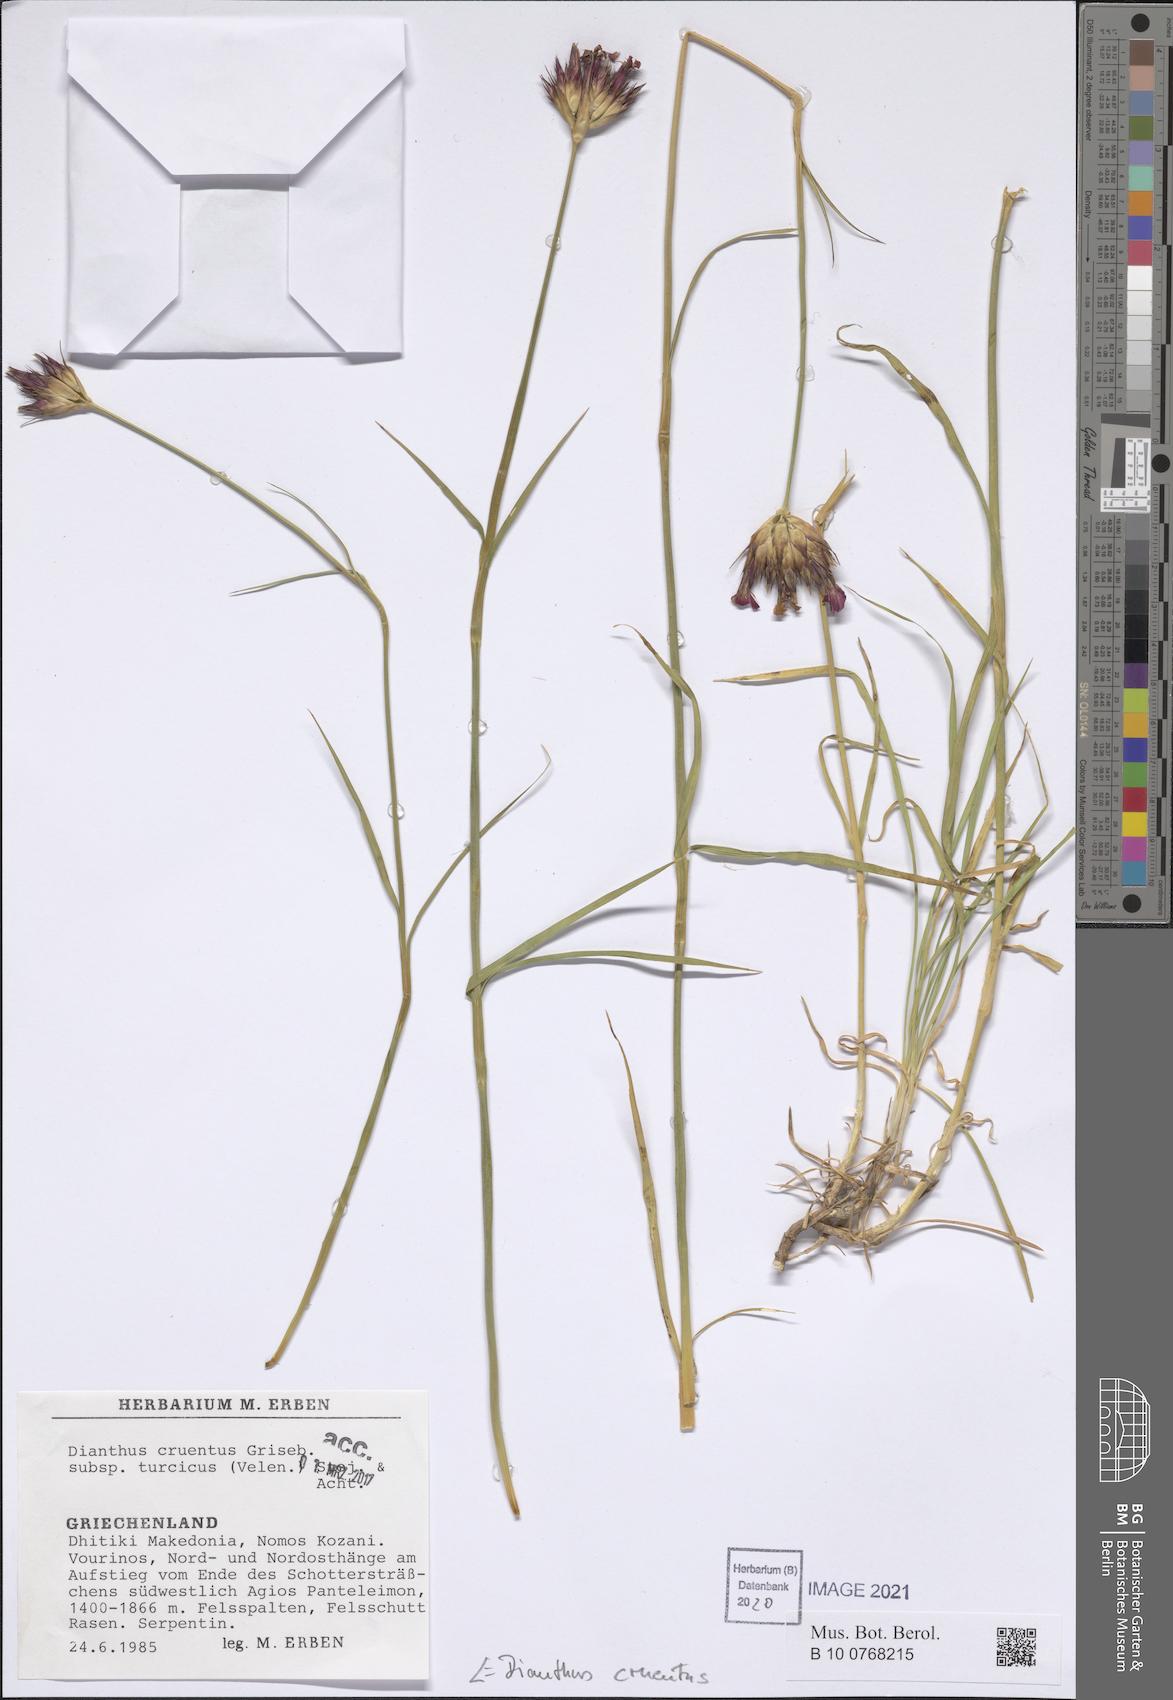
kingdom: Plantae
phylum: Tracheophyta
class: Magnoliopsida
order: Caryophyllales
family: Caryophyllaceae
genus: Dianthus
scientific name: Dianthus cruentus
